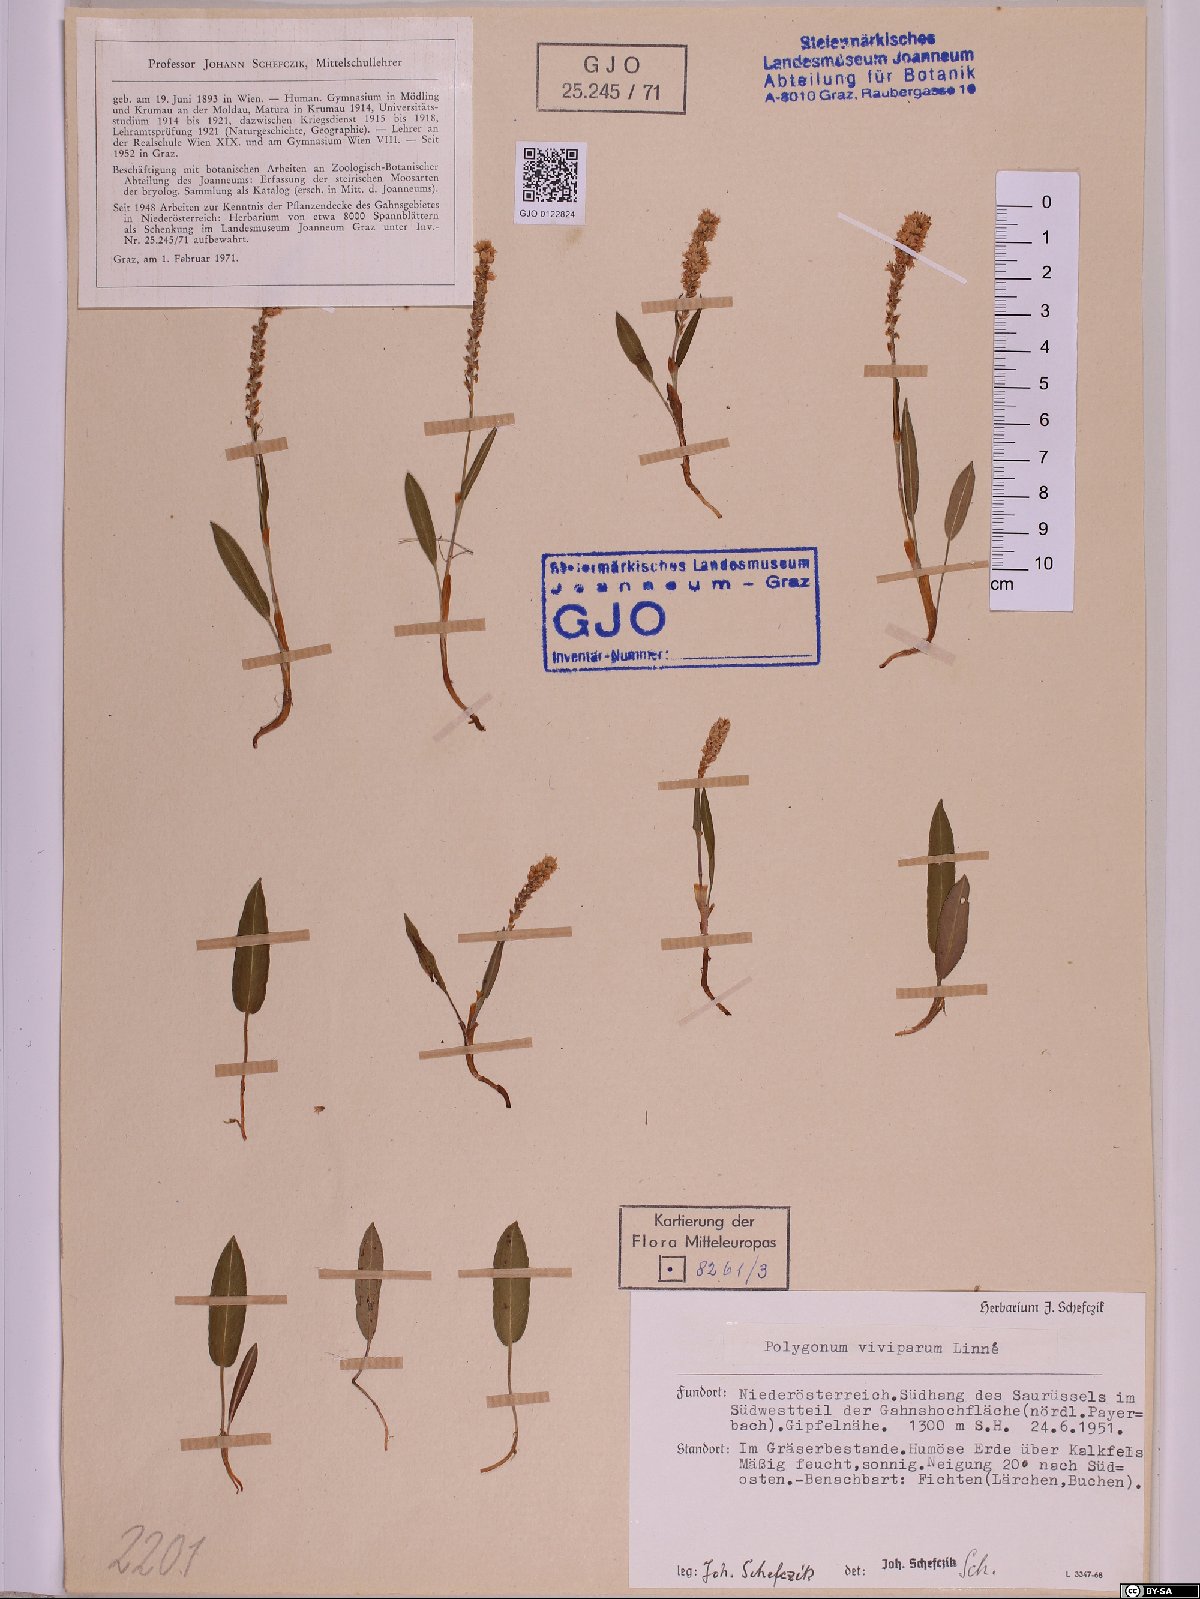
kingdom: Plantae
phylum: Tracheophyta
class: Magnoliopsida
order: Caryophyllales
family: Polygonaceae
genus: Bistorta
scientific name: Bistorta vivipara
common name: Alpine bistort
